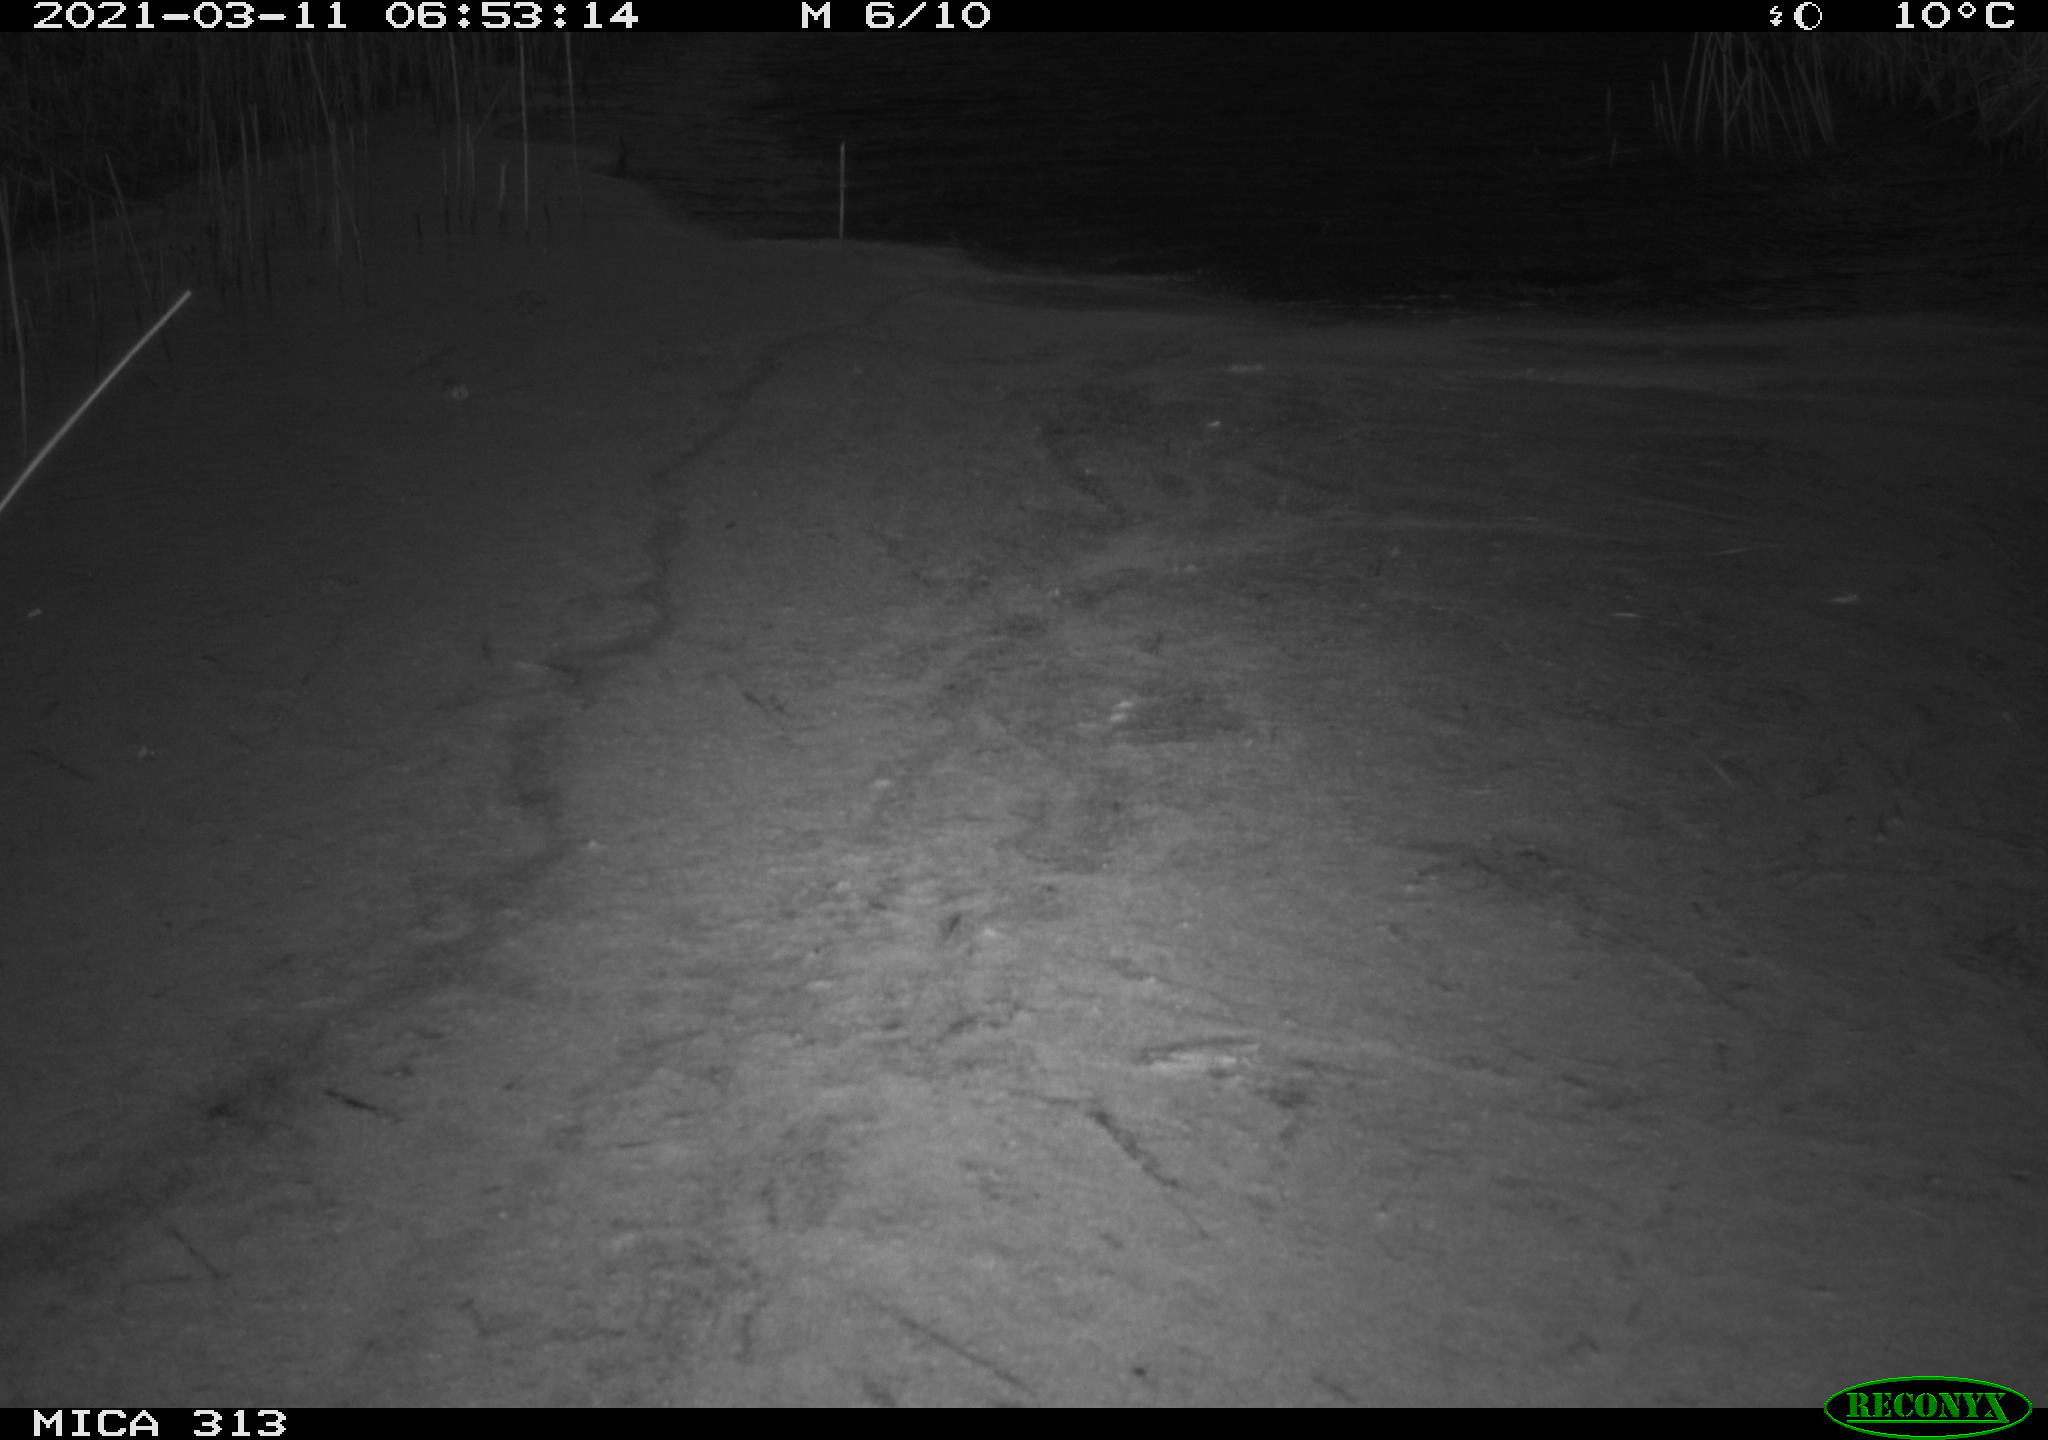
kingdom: Animalia
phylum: Chordata
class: Aves
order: Gruiformes
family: Rallidae
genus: Gallinula
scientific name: Gallinula chloropus
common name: Common moorhen
